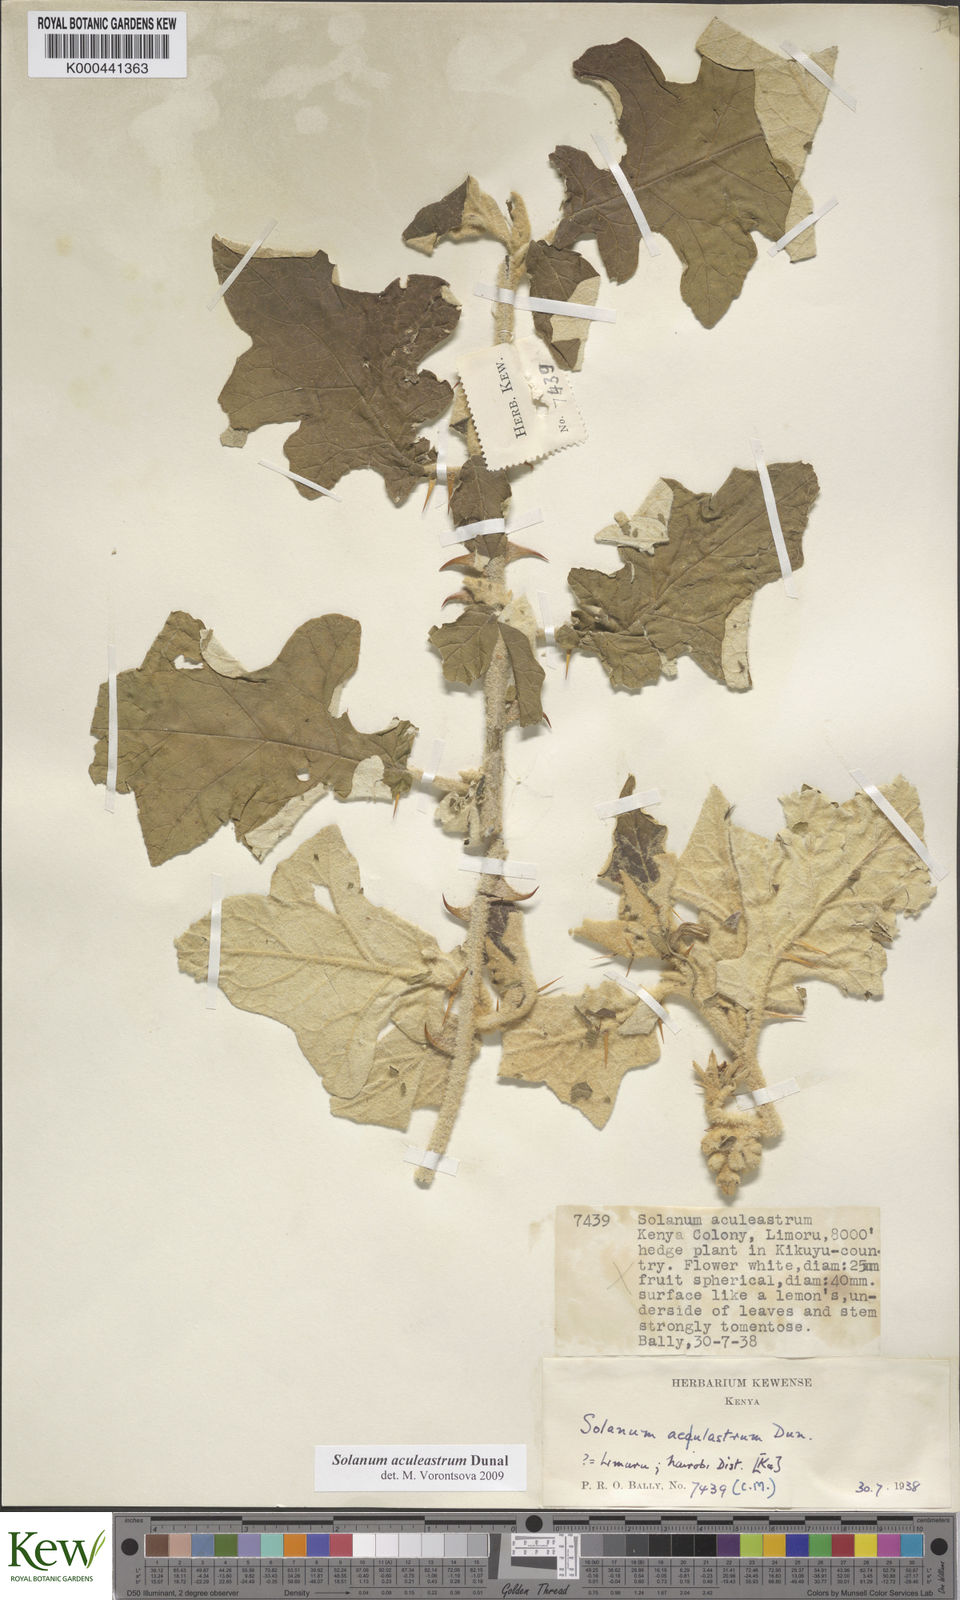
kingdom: Plantae
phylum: Tracheophyta
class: Magnoliopsida
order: Solanales
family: Solanaceae
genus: Solanum
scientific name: Solanum aculeastrum
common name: Goat bitter-apple
